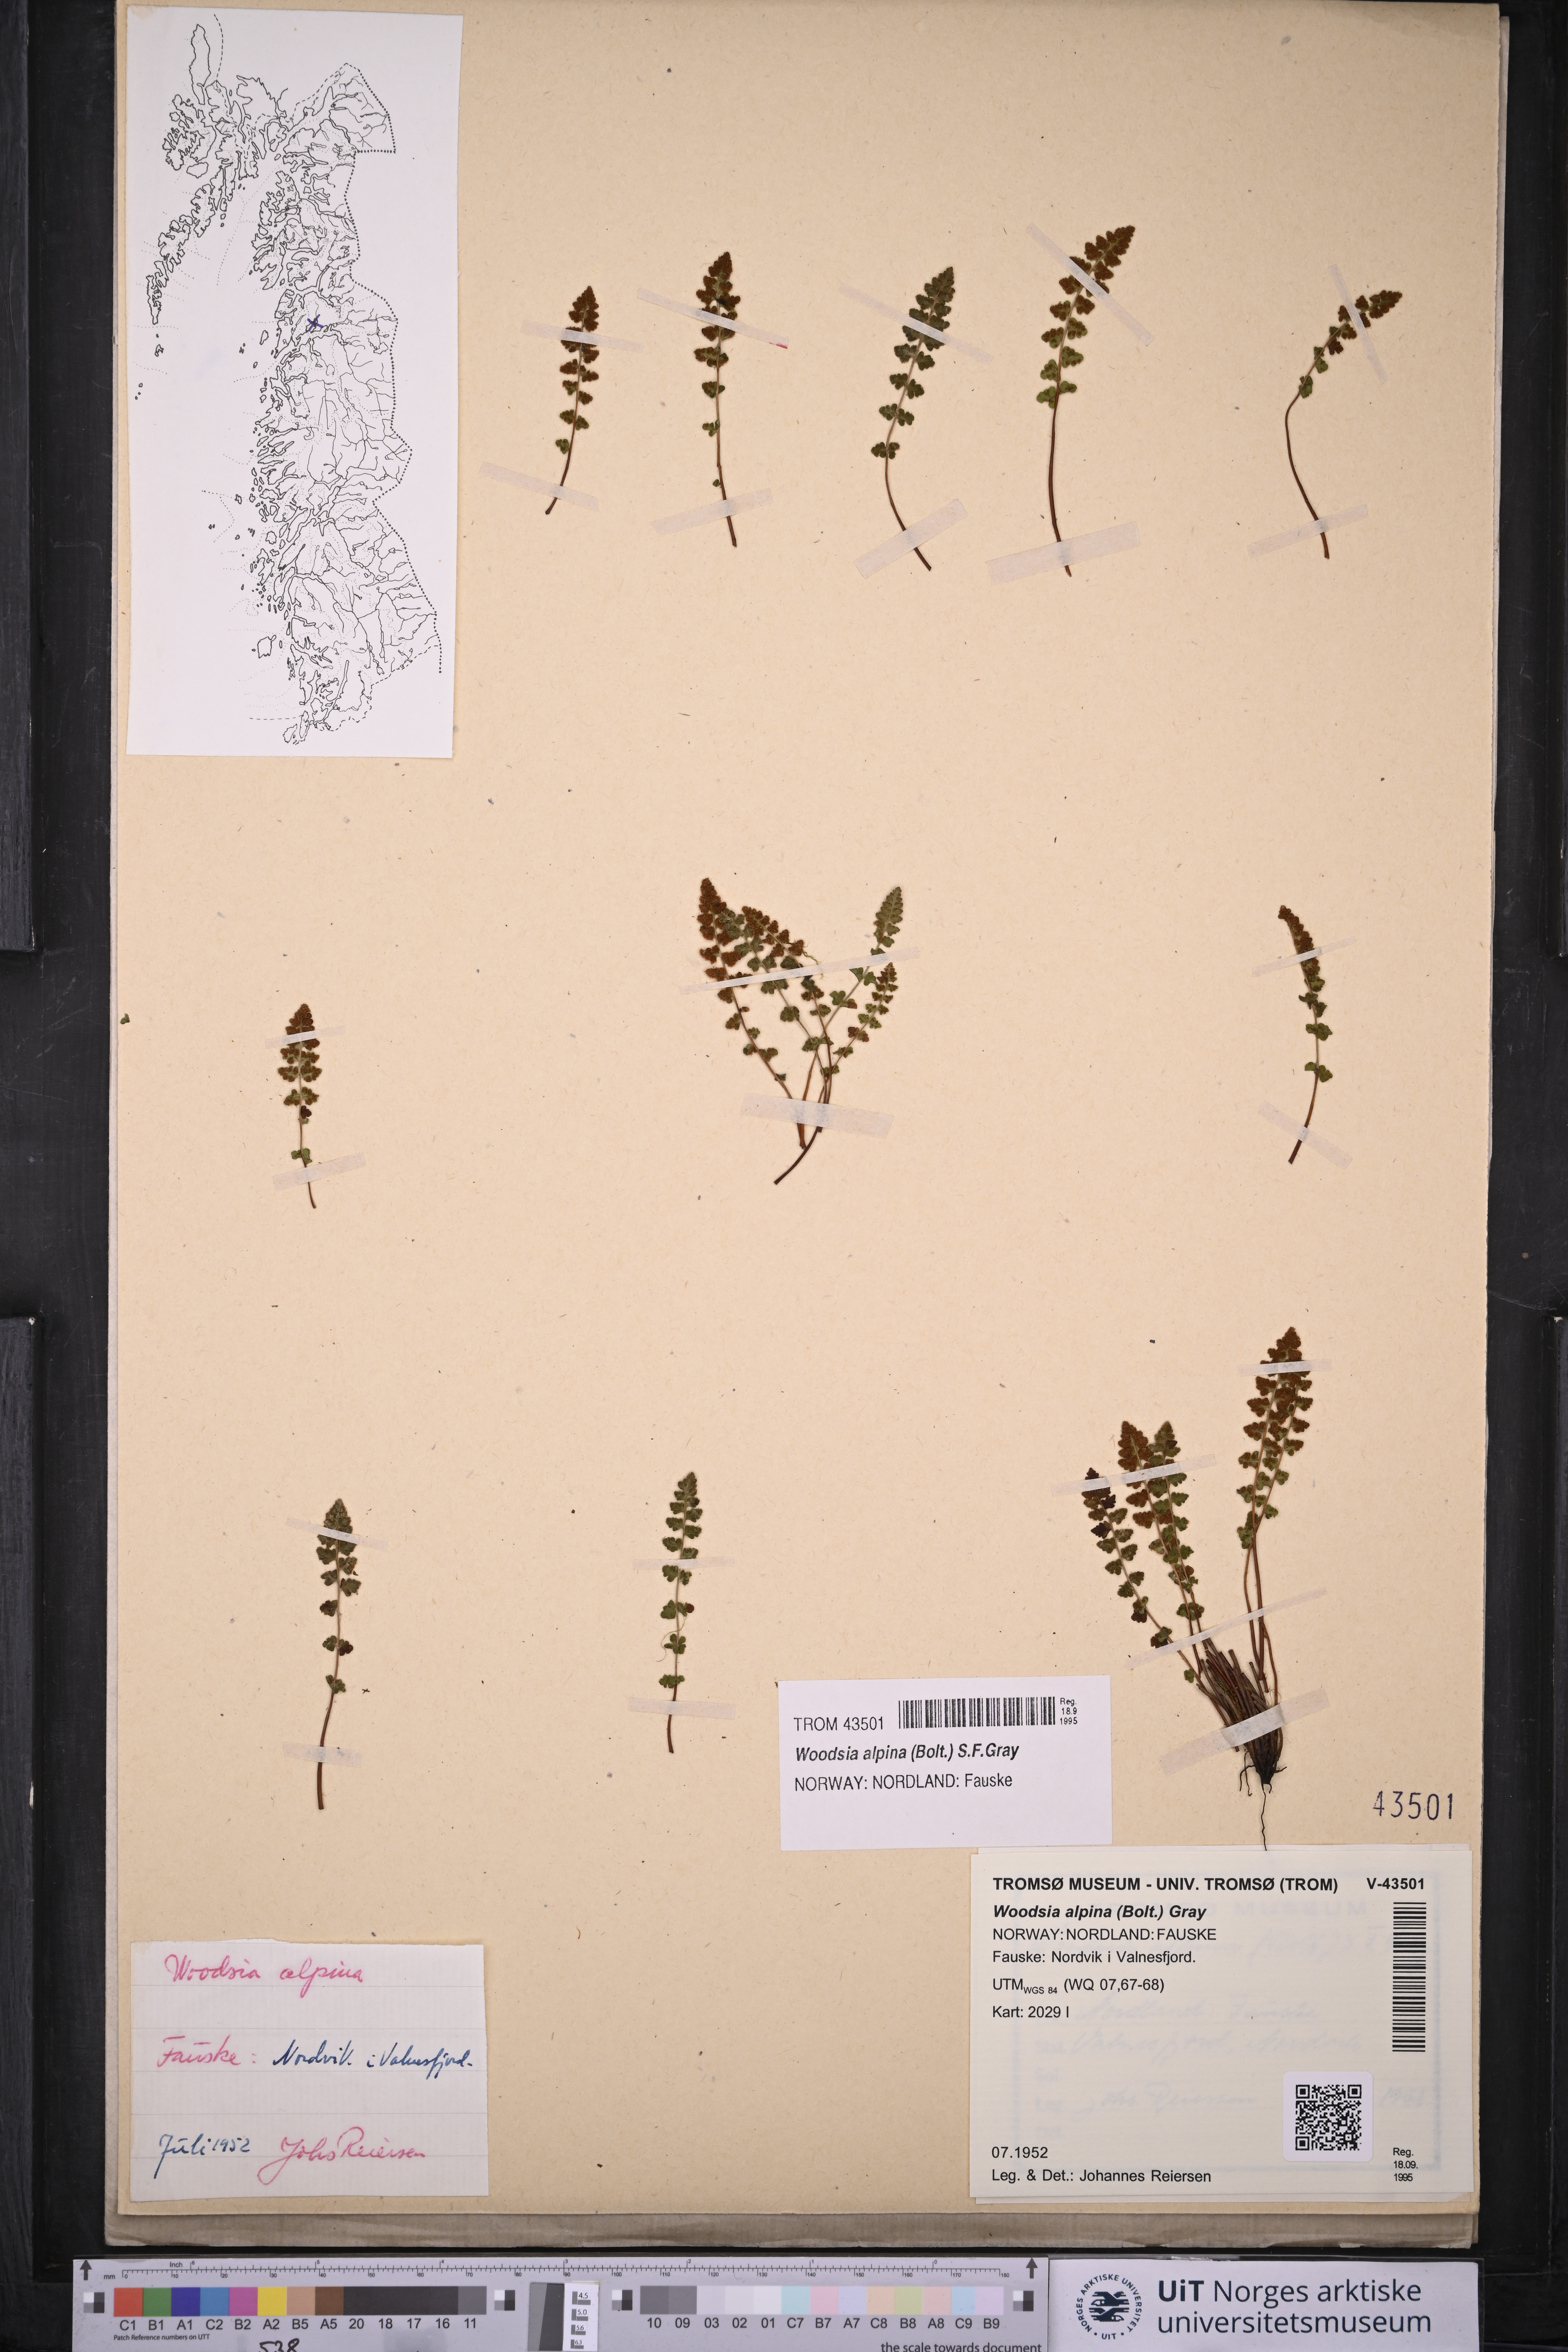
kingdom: Plantae
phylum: Tracheophyta
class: Polypodiopsida
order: Polypodiales
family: Woodsiaceae
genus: Woodsia
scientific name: Woodsia alpina
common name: Alpine woodsia
